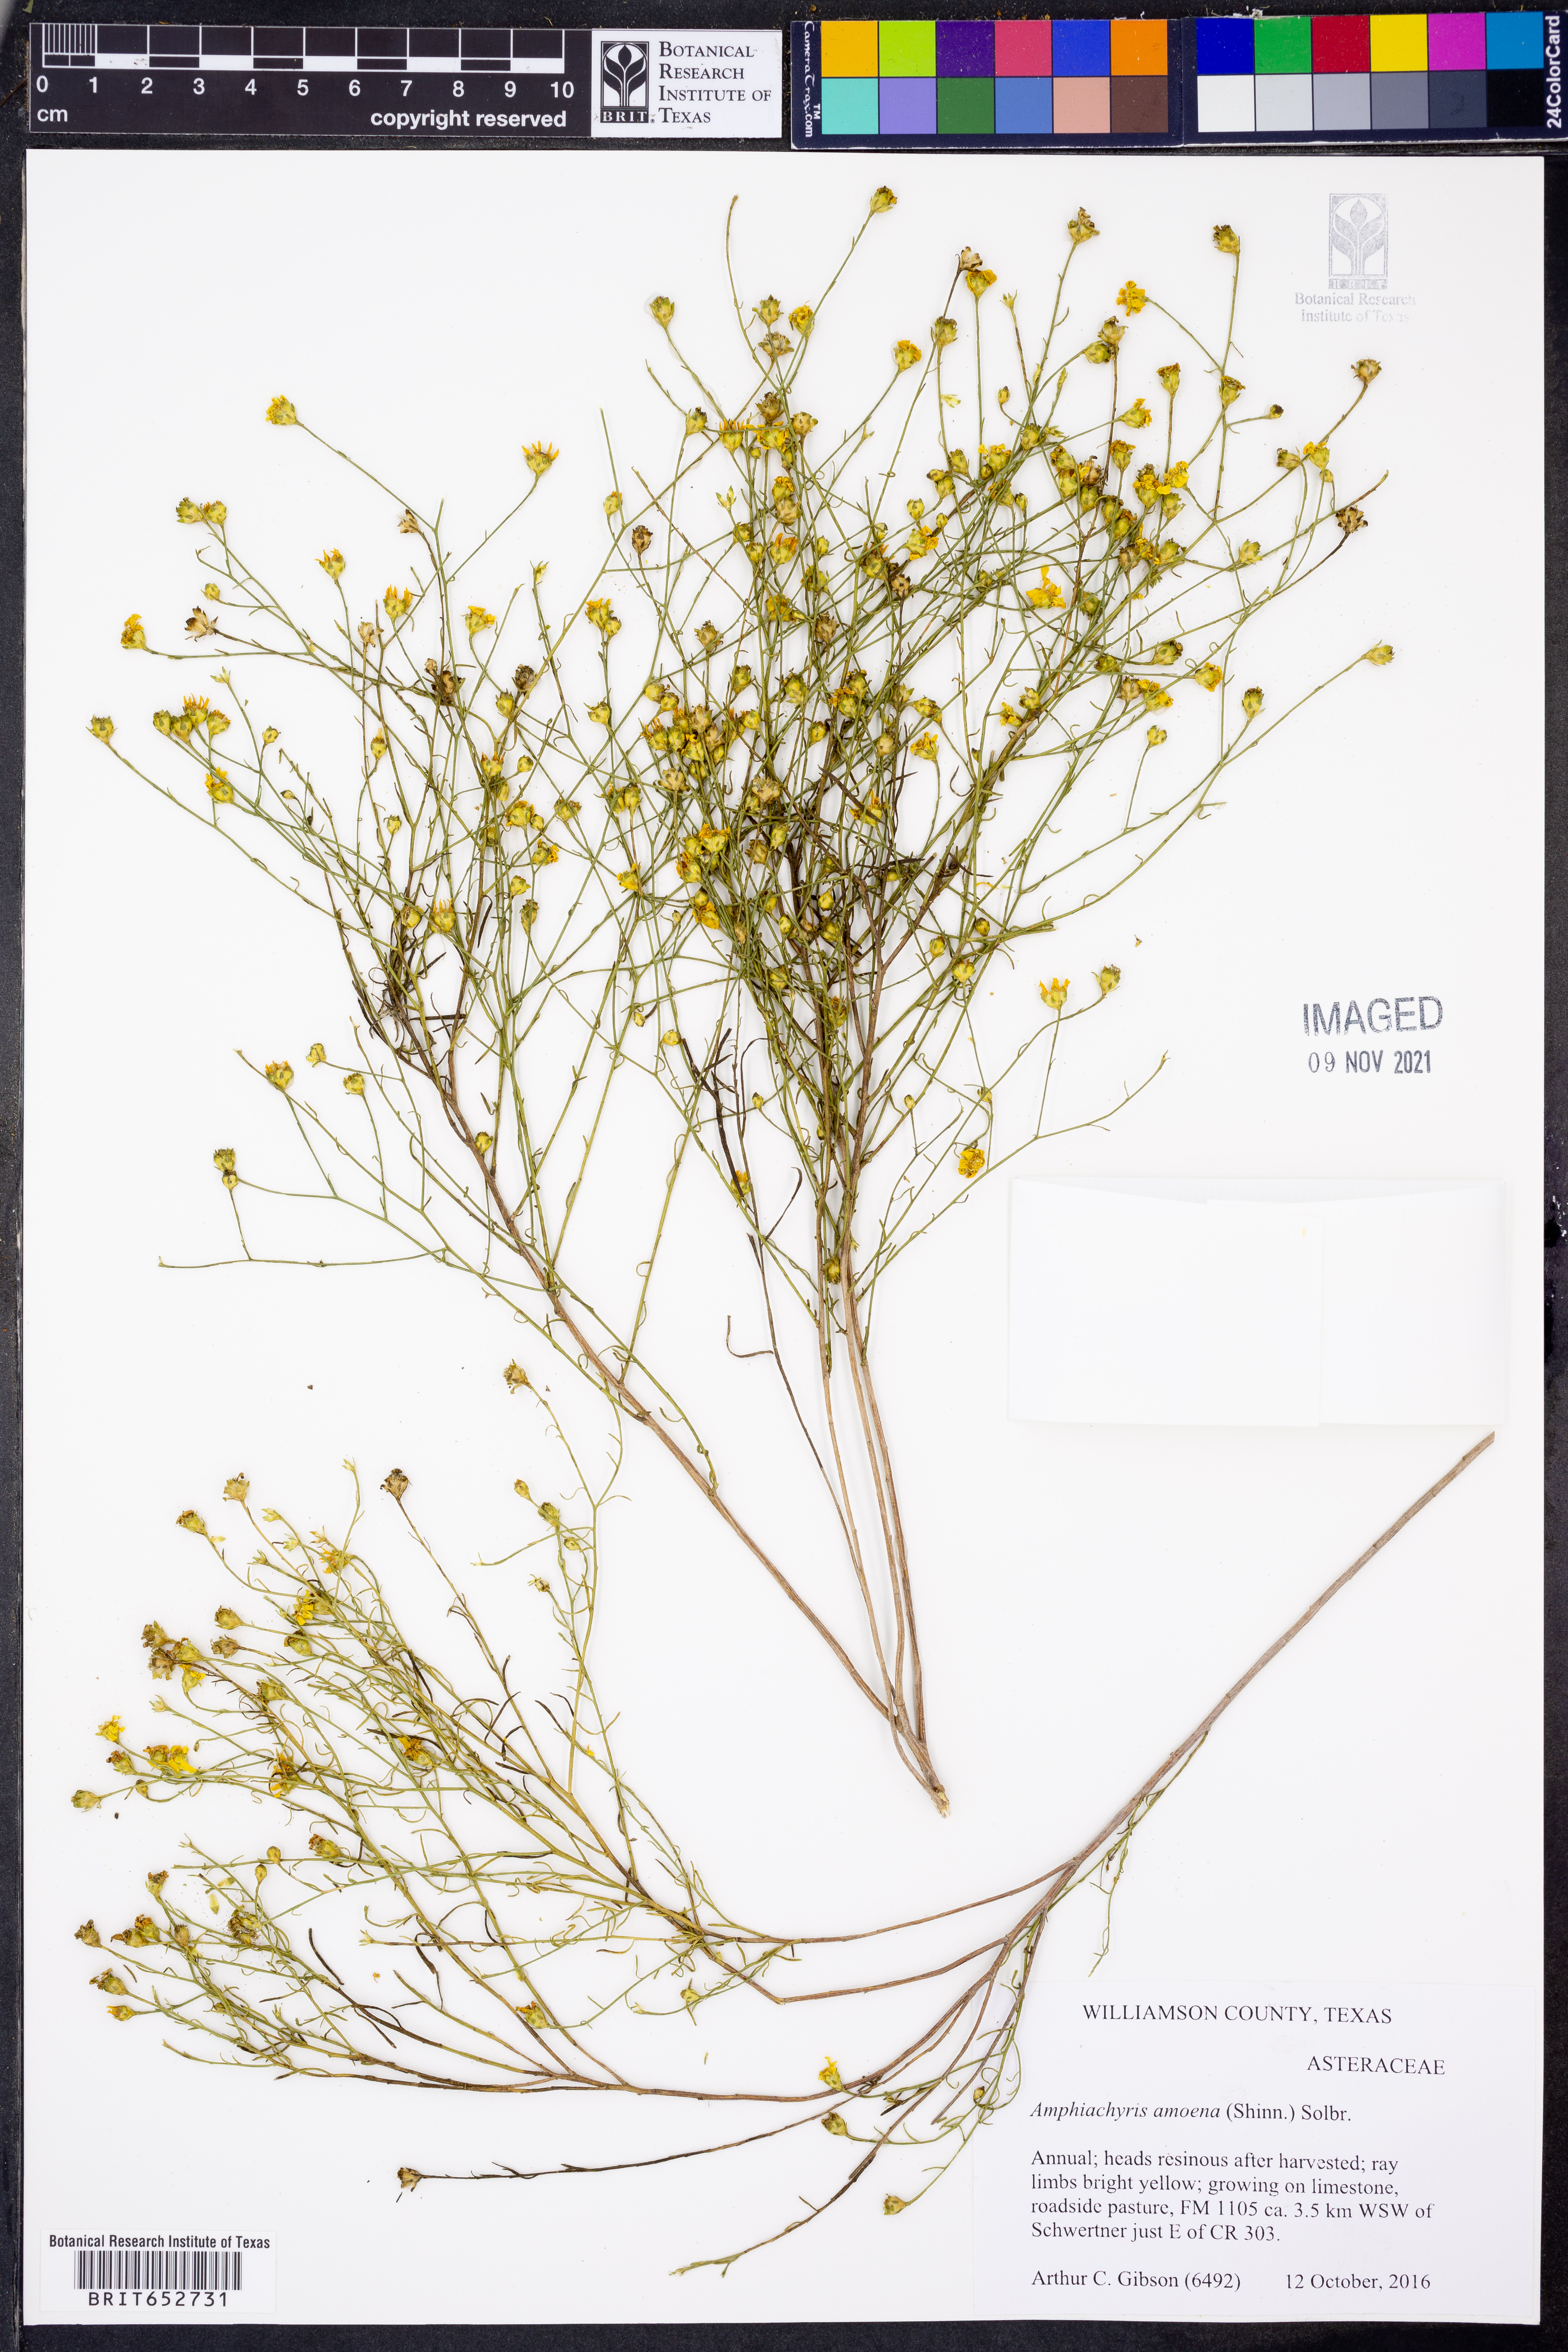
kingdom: Plantae
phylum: Tracheophyta
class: Magnoliopsida
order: Asterales
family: Asteraceae
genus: Amphiachyris
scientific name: Amphiachyris amoenum
